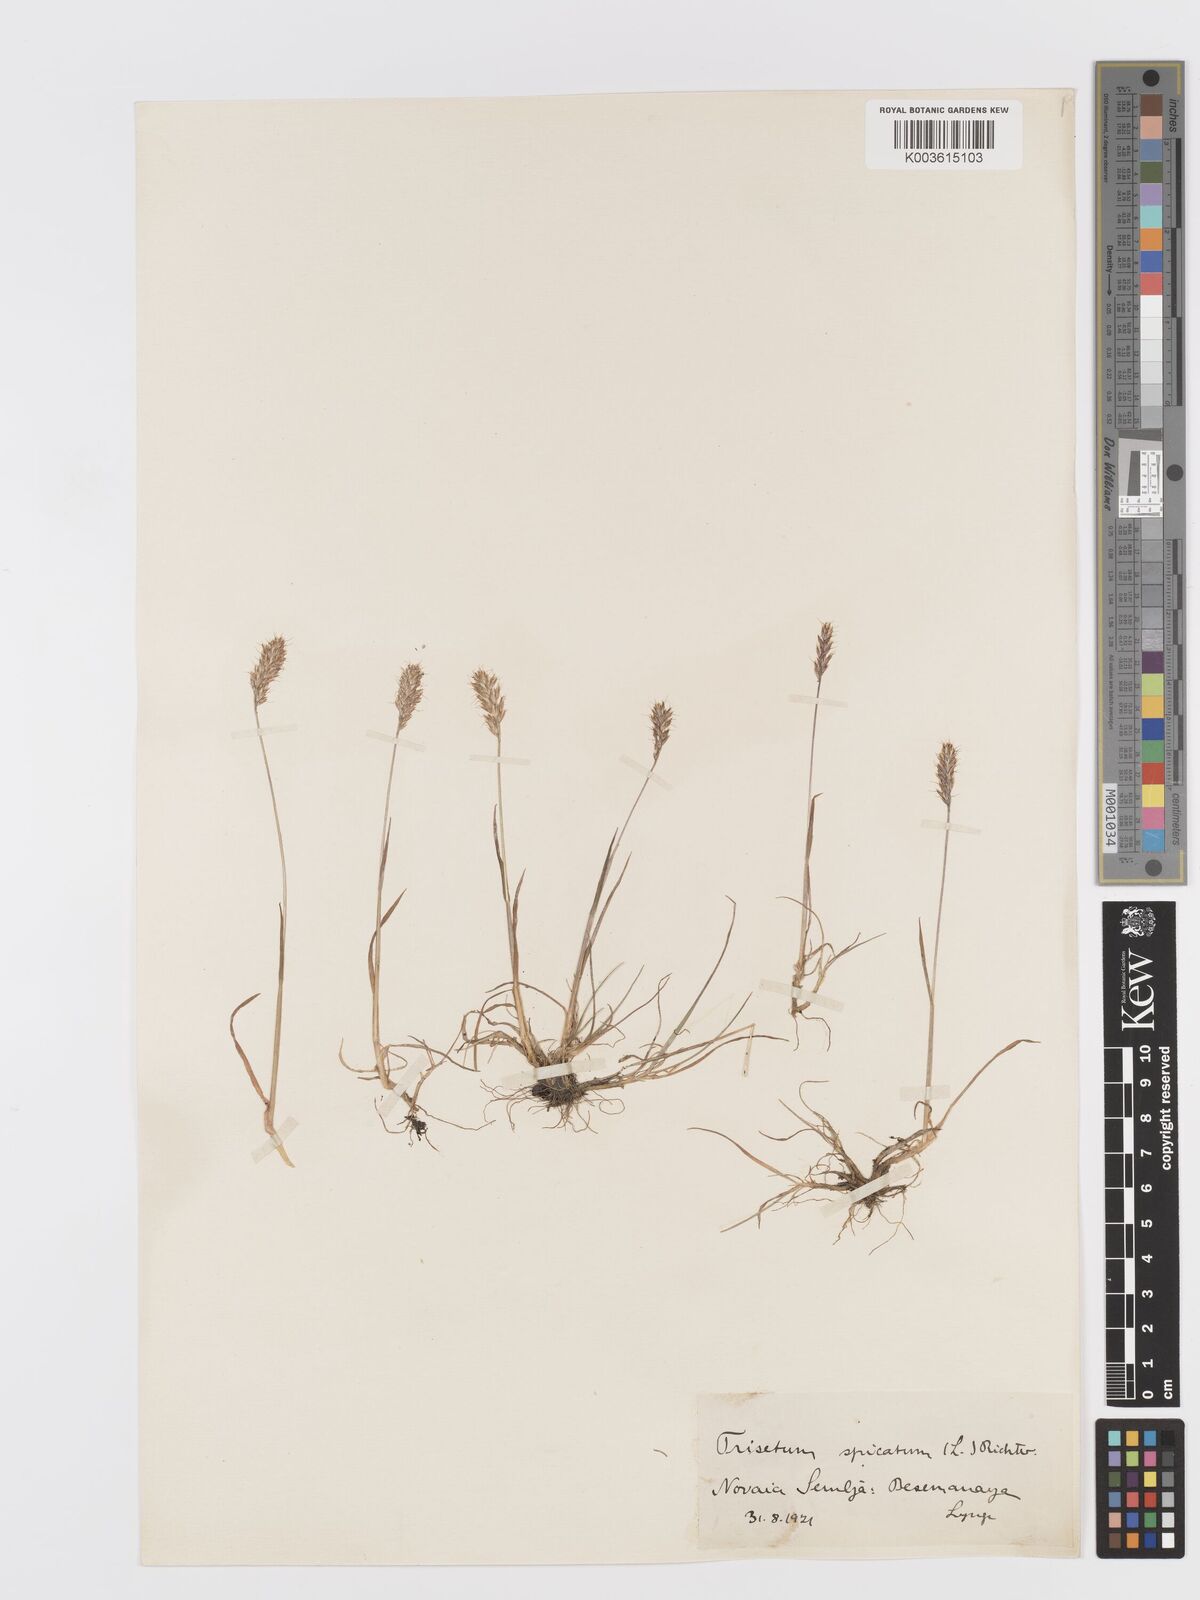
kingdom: Plantae
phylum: Tracheophyta
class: Liliopsida
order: Poales
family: Poaceae
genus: Koeleria
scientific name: Koeleria spicata
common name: Mountain trisetum
